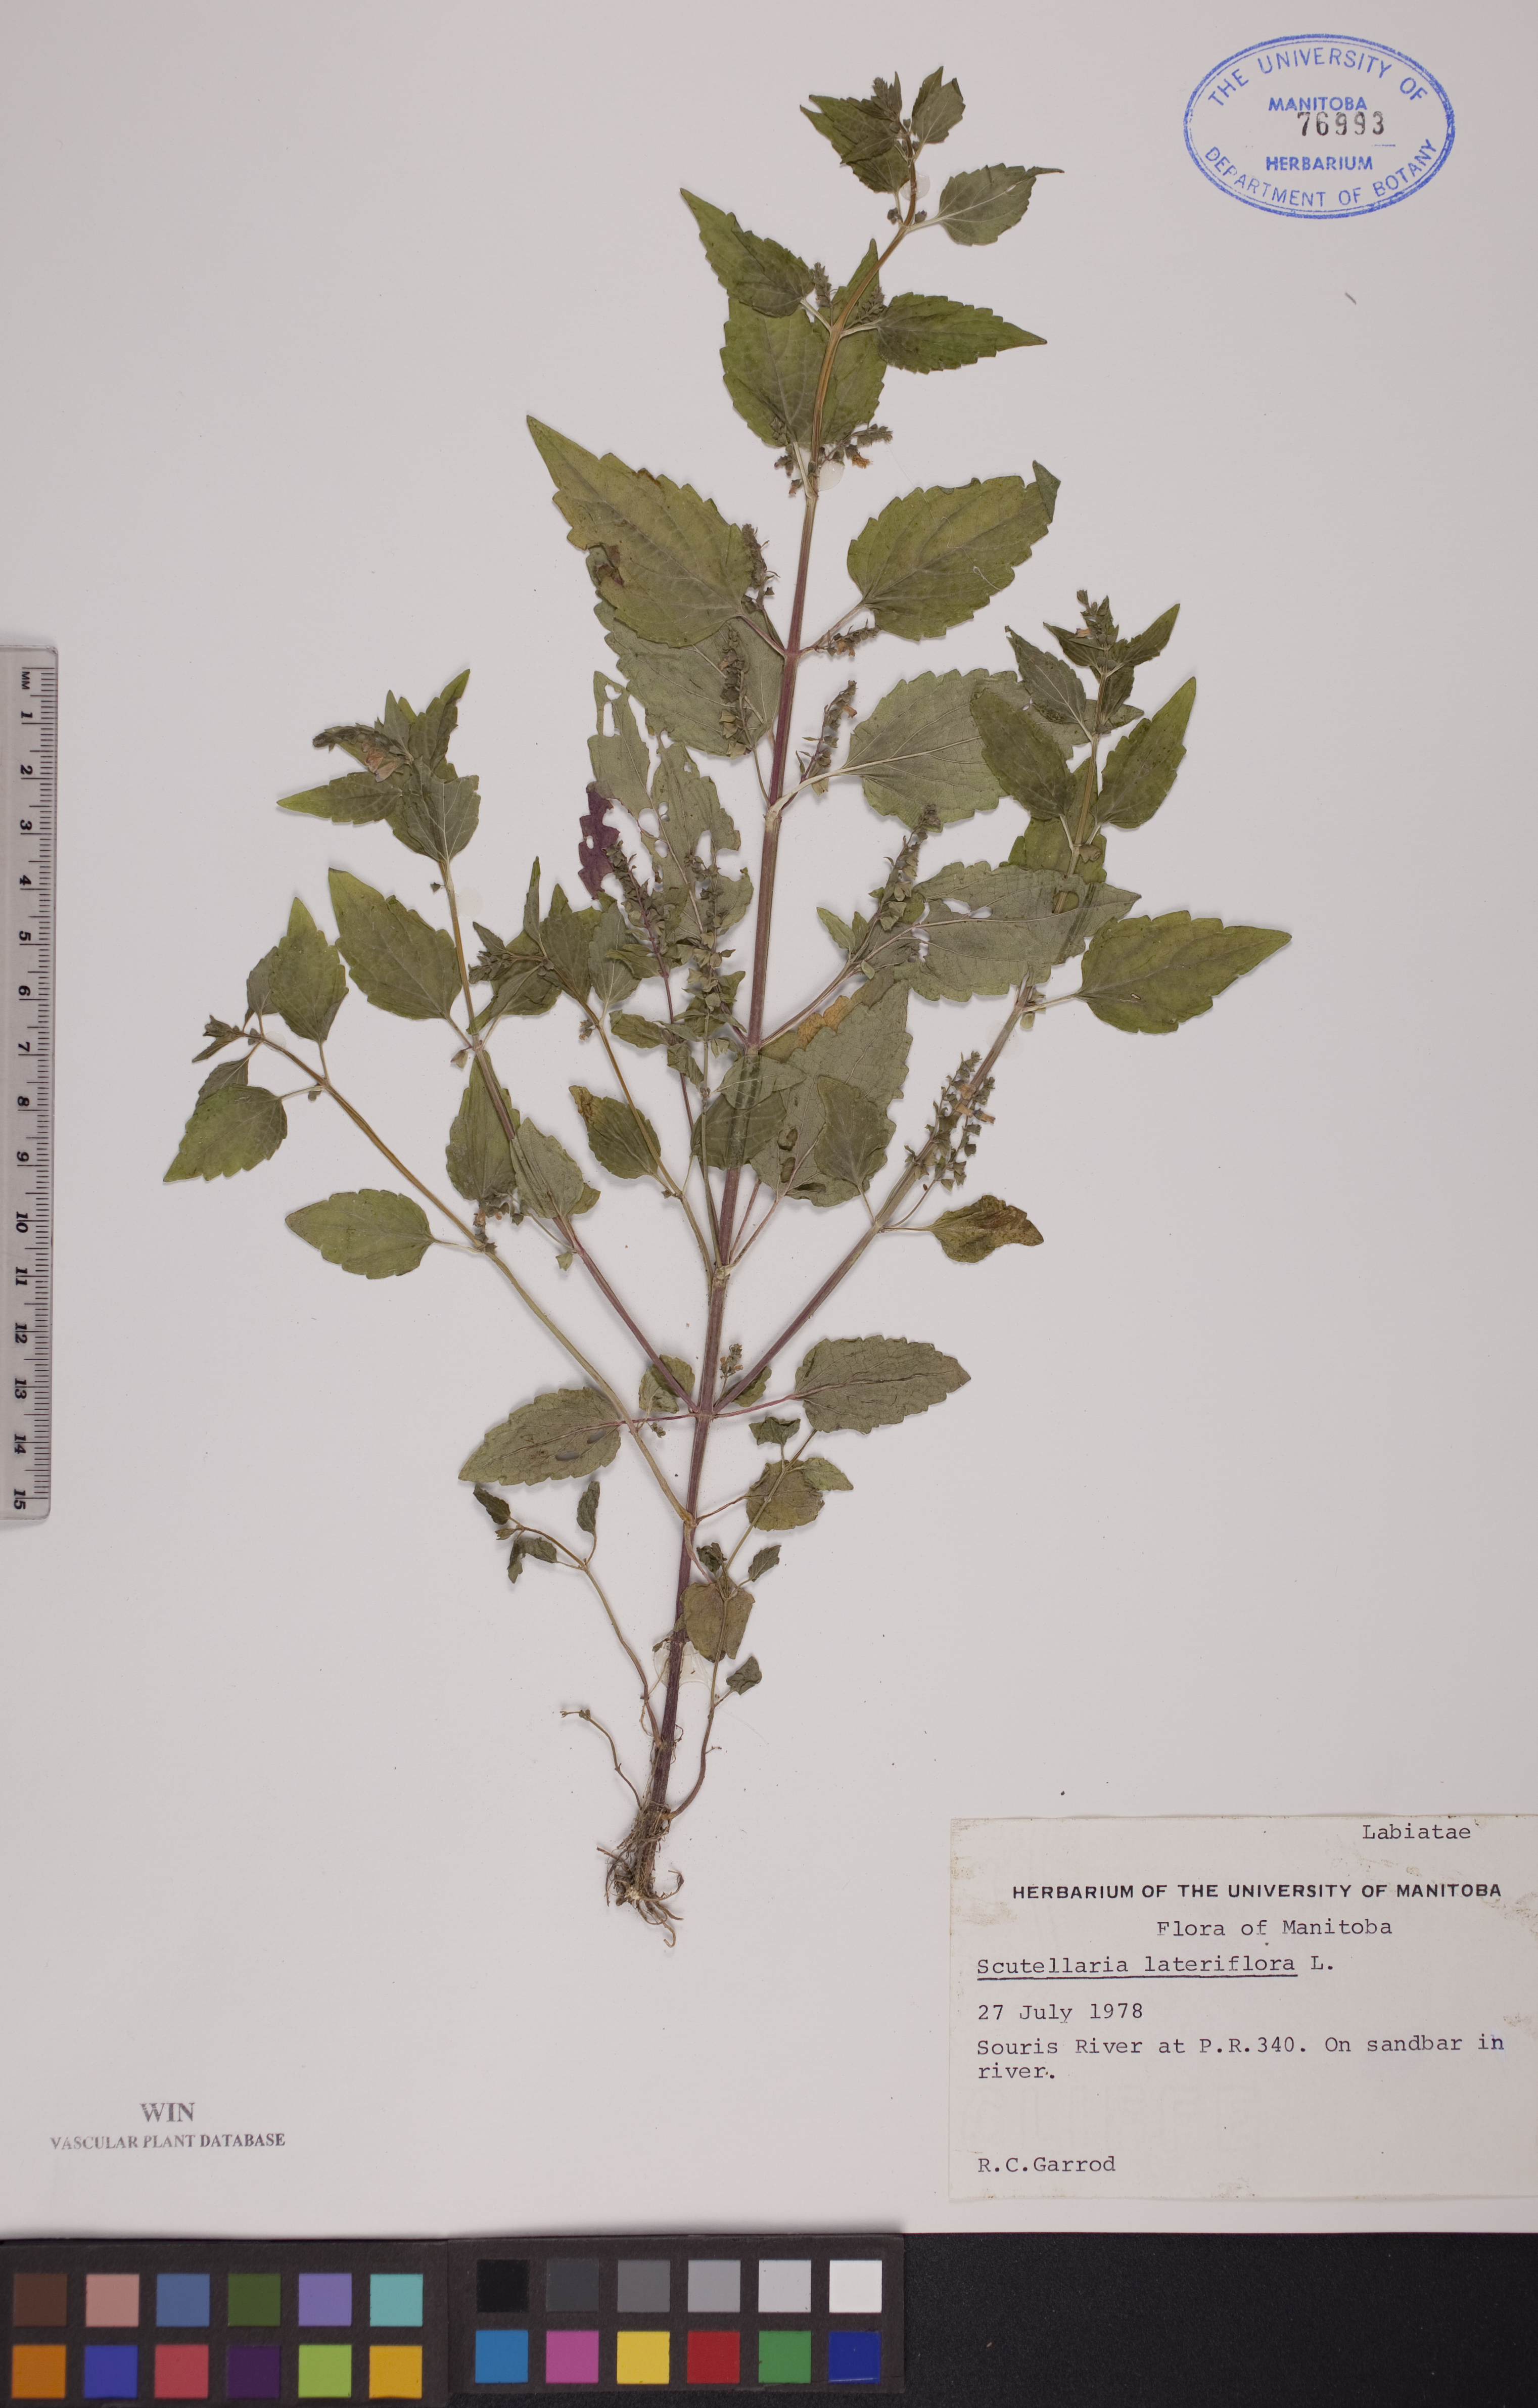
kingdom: Plantae
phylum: Tracheophyta
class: Magnoliopsida
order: Lamiales
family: Lamiaceae
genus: Scutellaria
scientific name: Scutellaria lateriflora
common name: Blue skullcap
